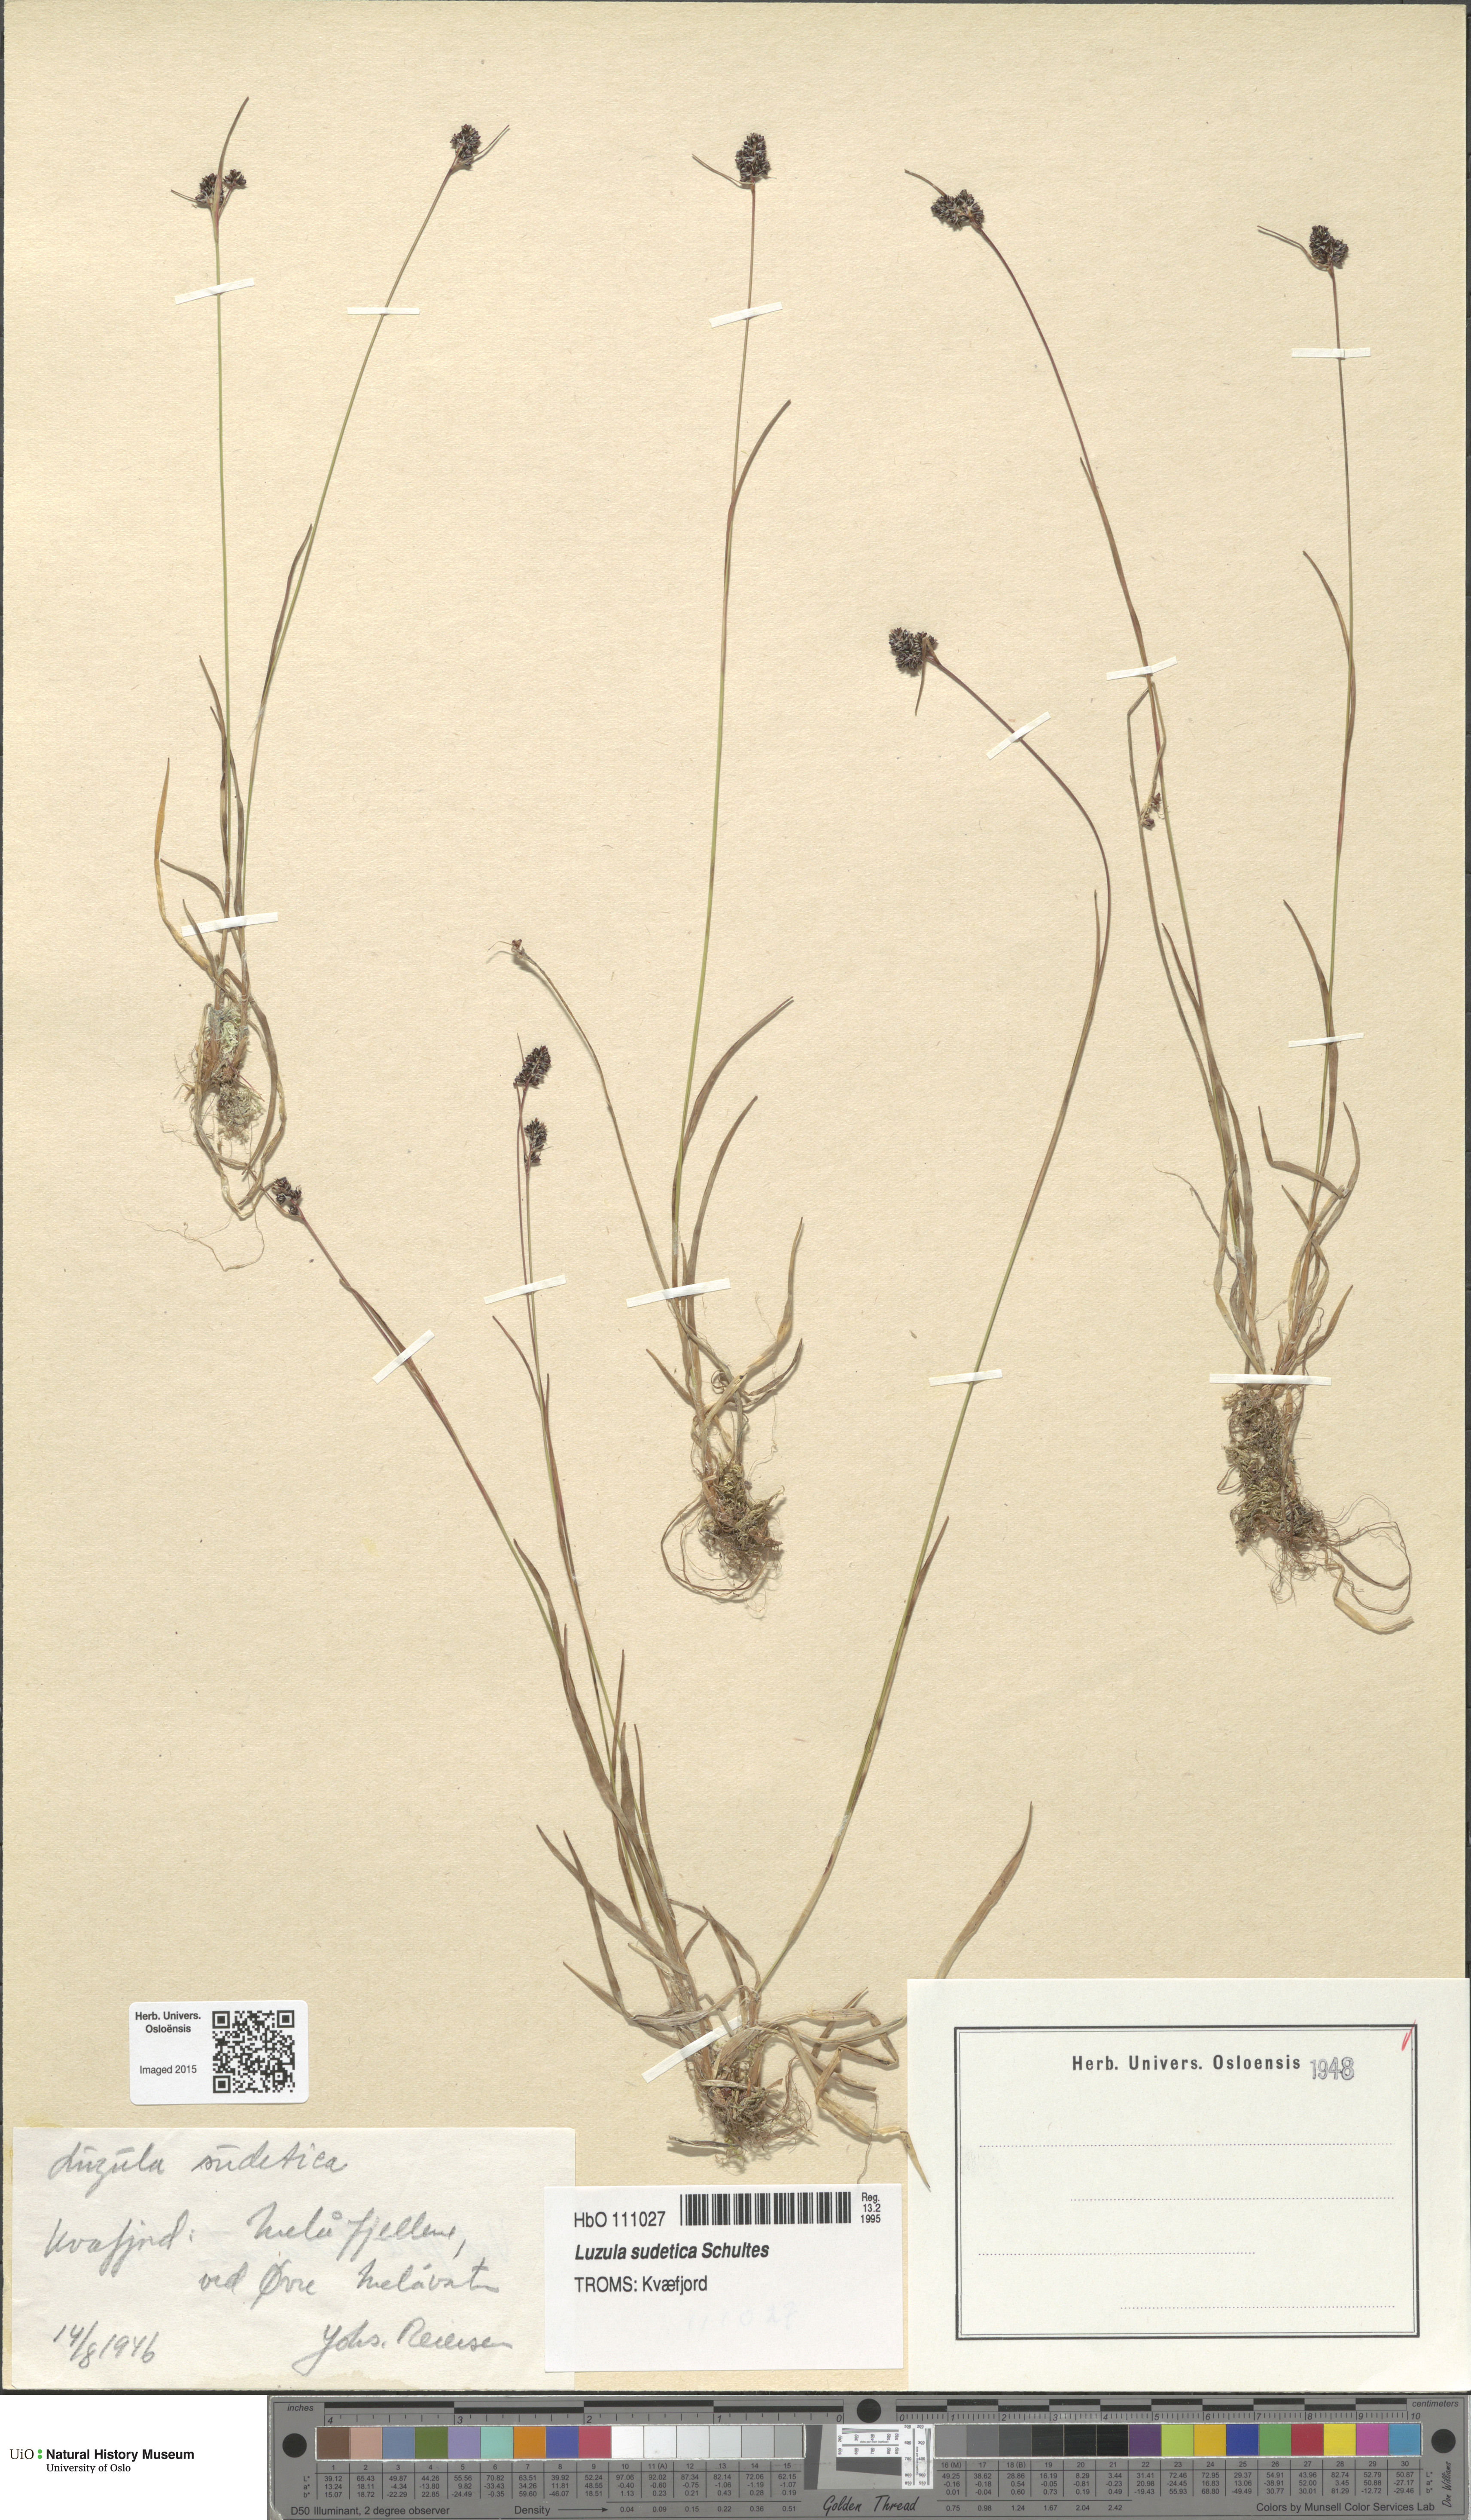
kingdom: Plantae
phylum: Tracheophyta
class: Liliopsida
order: Poales
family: Juncaceae
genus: Luzula
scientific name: Luzula sudetica
